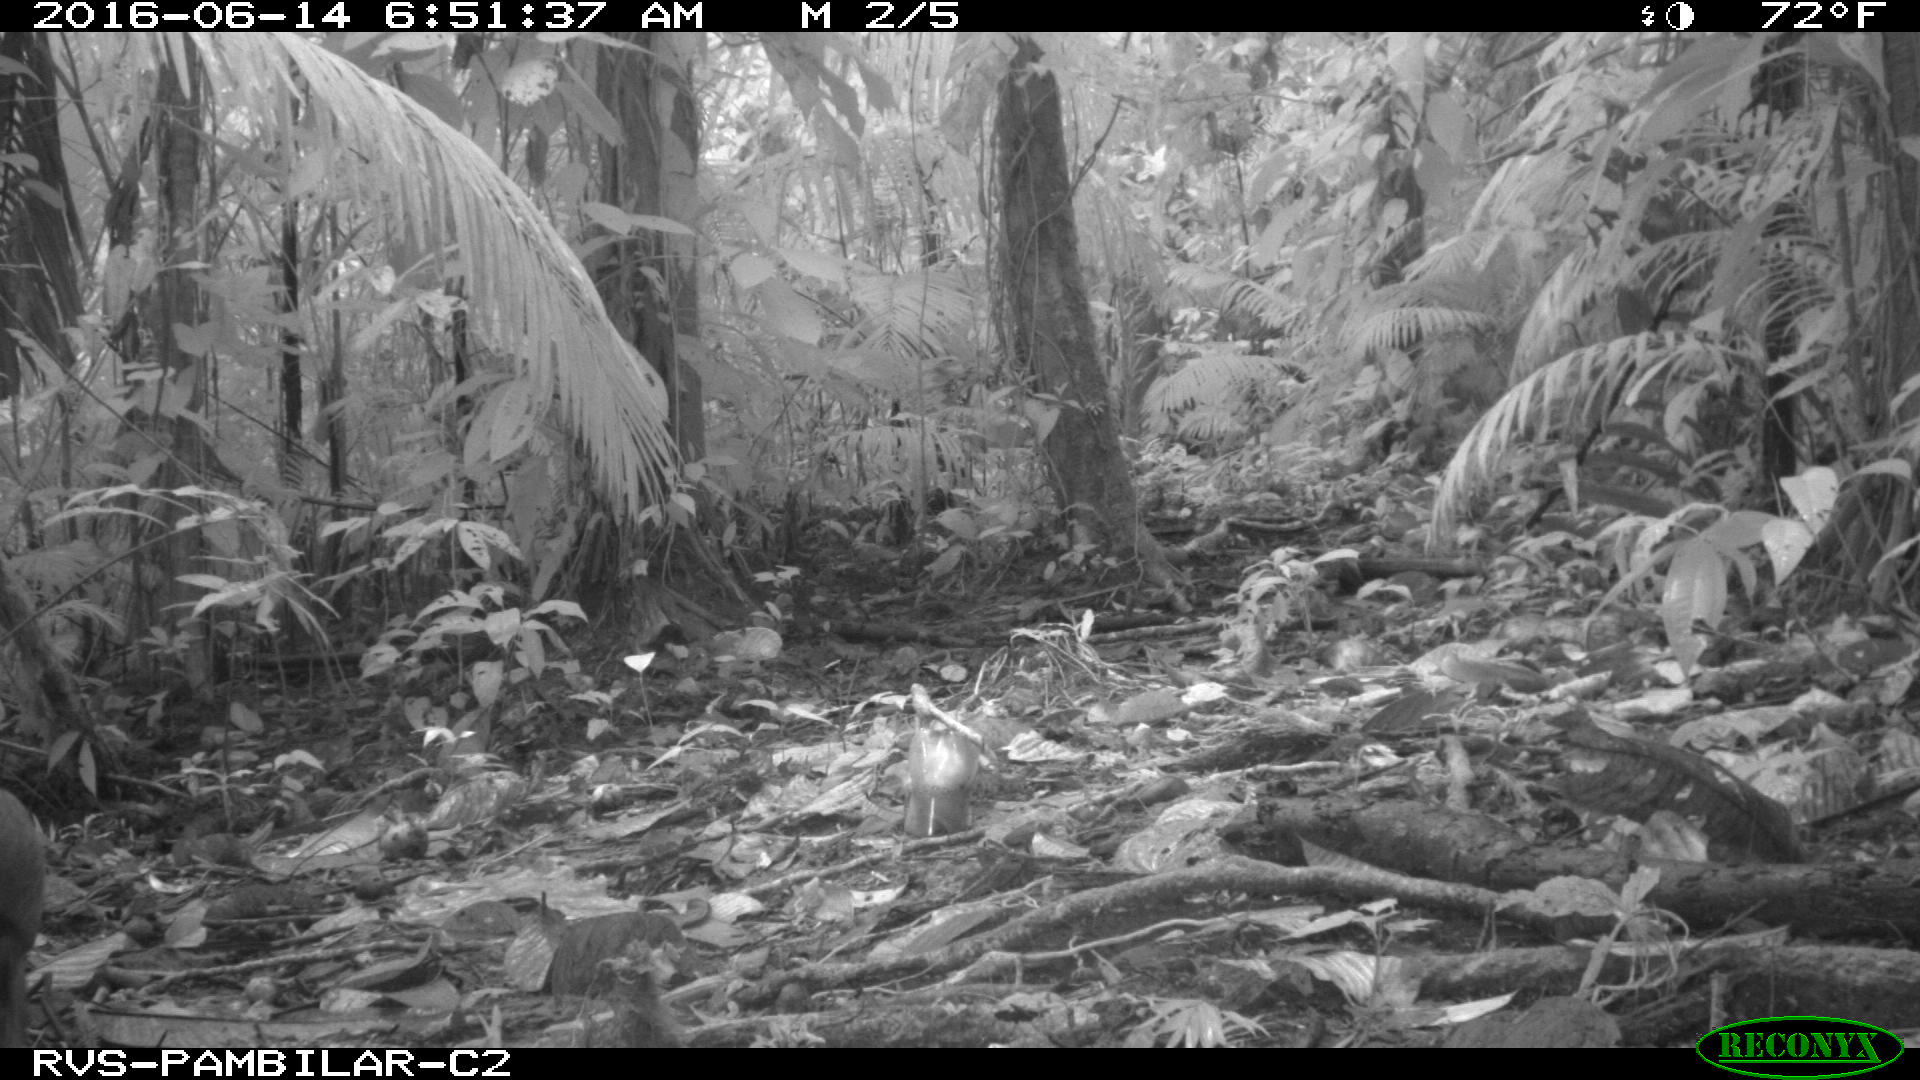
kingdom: Animalia
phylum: Chordata
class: Mammalia
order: Rodentia
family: Dasyproctidae
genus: Dasyprocta
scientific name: Dasyprocta punctata
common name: Central american agouti
